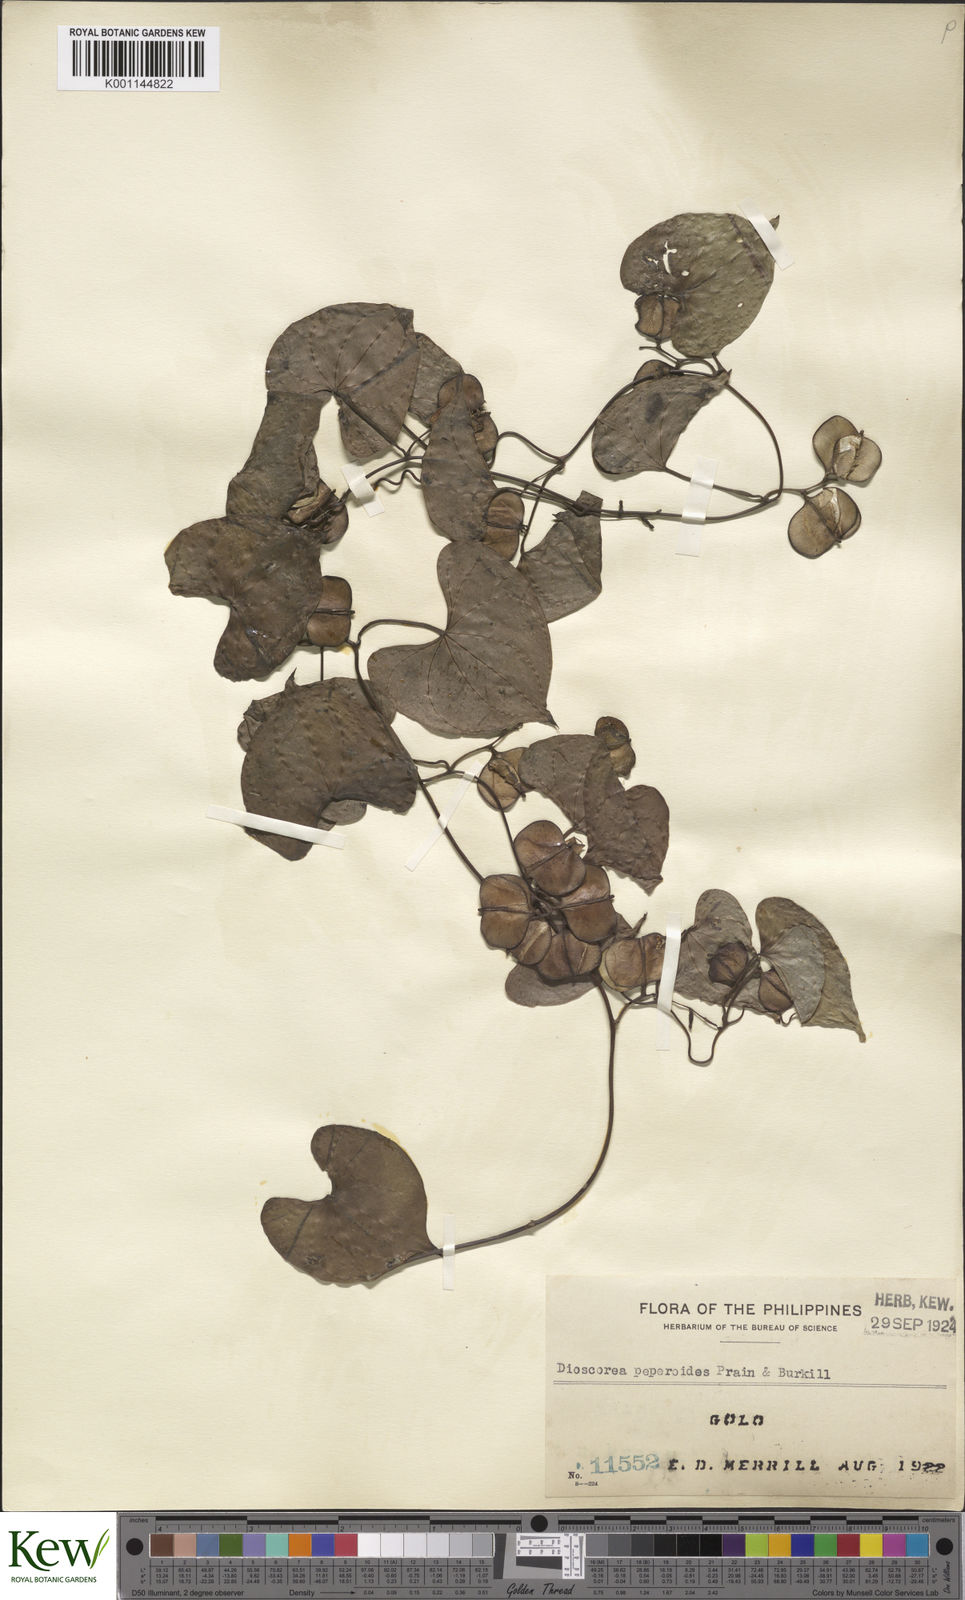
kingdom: Plantae
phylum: Tracheophyta
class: Liliopsida
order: Dioscoreales
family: Dioscoreaceae
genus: Dioscorea
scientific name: Dioscorea peperoides
